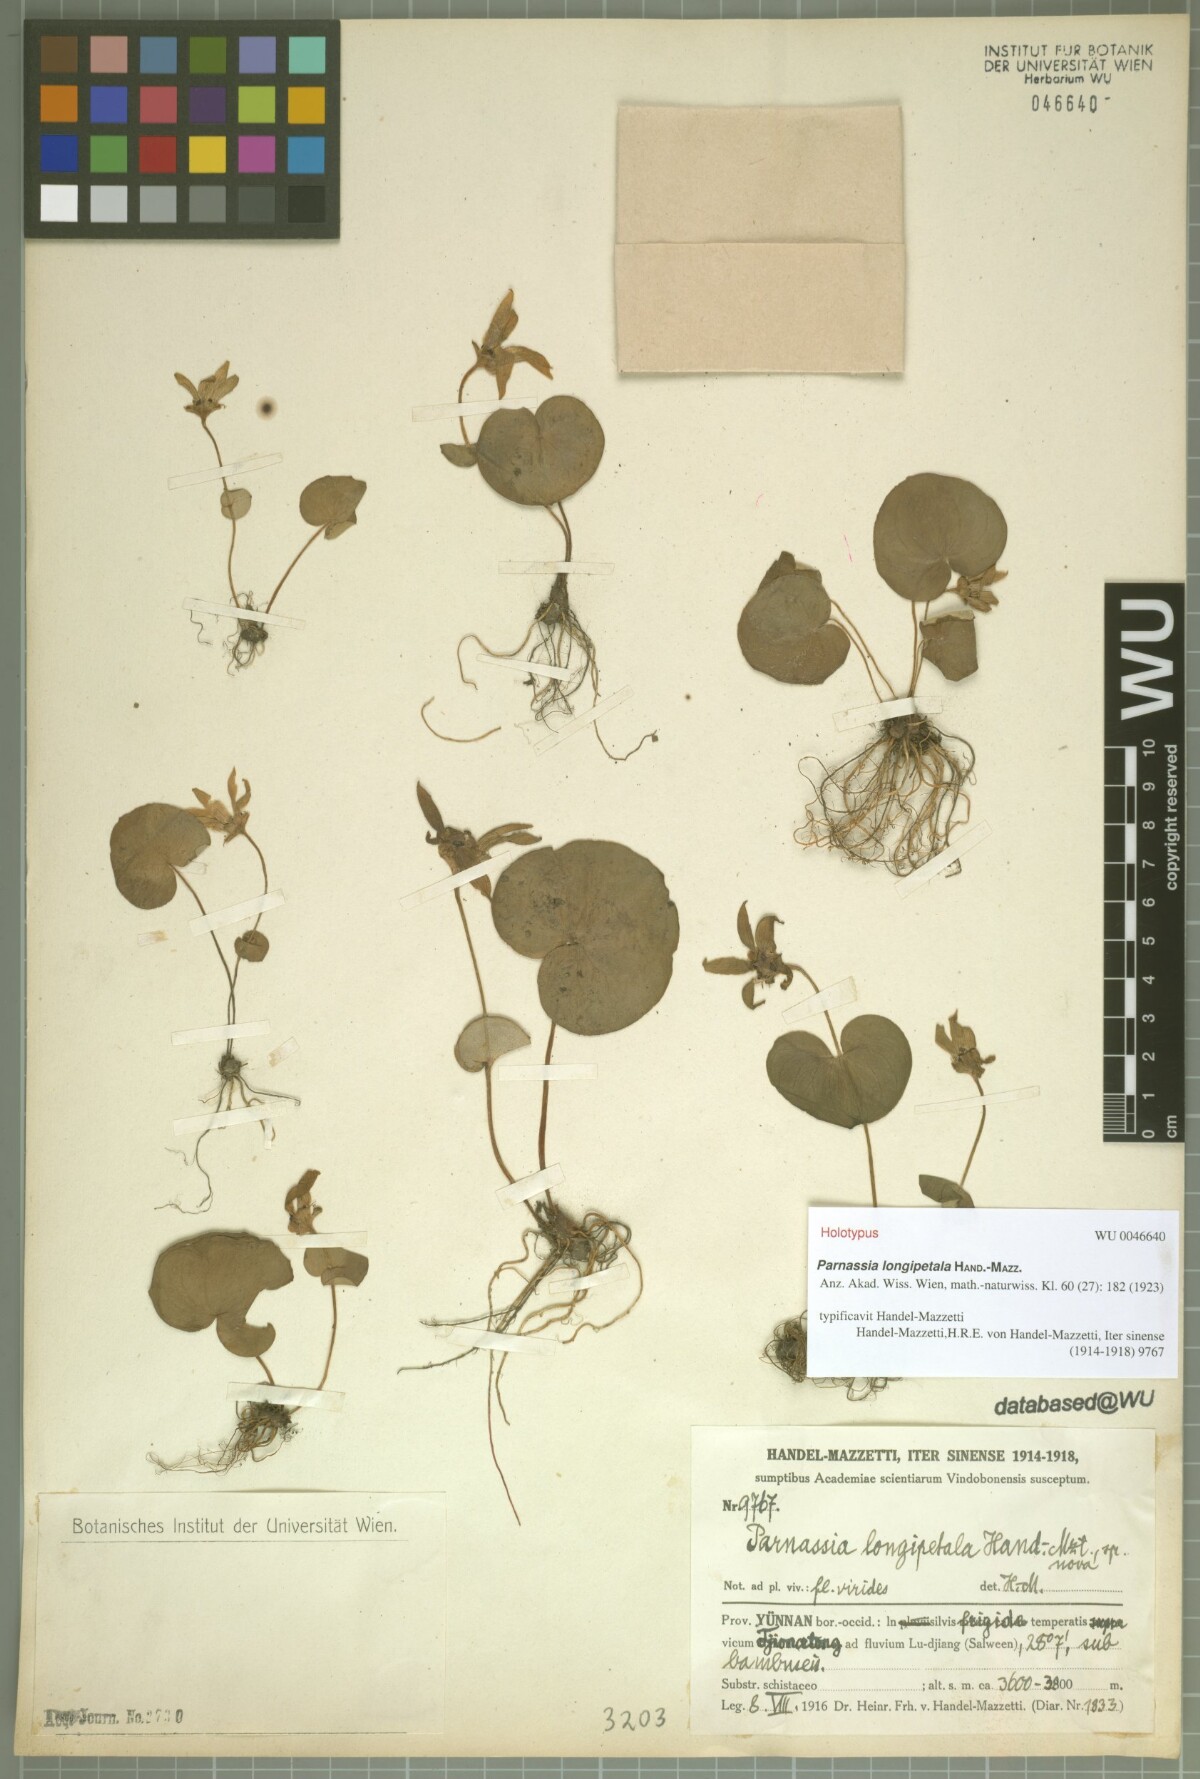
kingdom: Plantae
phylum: Tracheophyta
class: Magnoliopsida
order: Celastrales
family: Parnassiaceae
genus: Parnassia
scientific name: Parnassia longipetala
